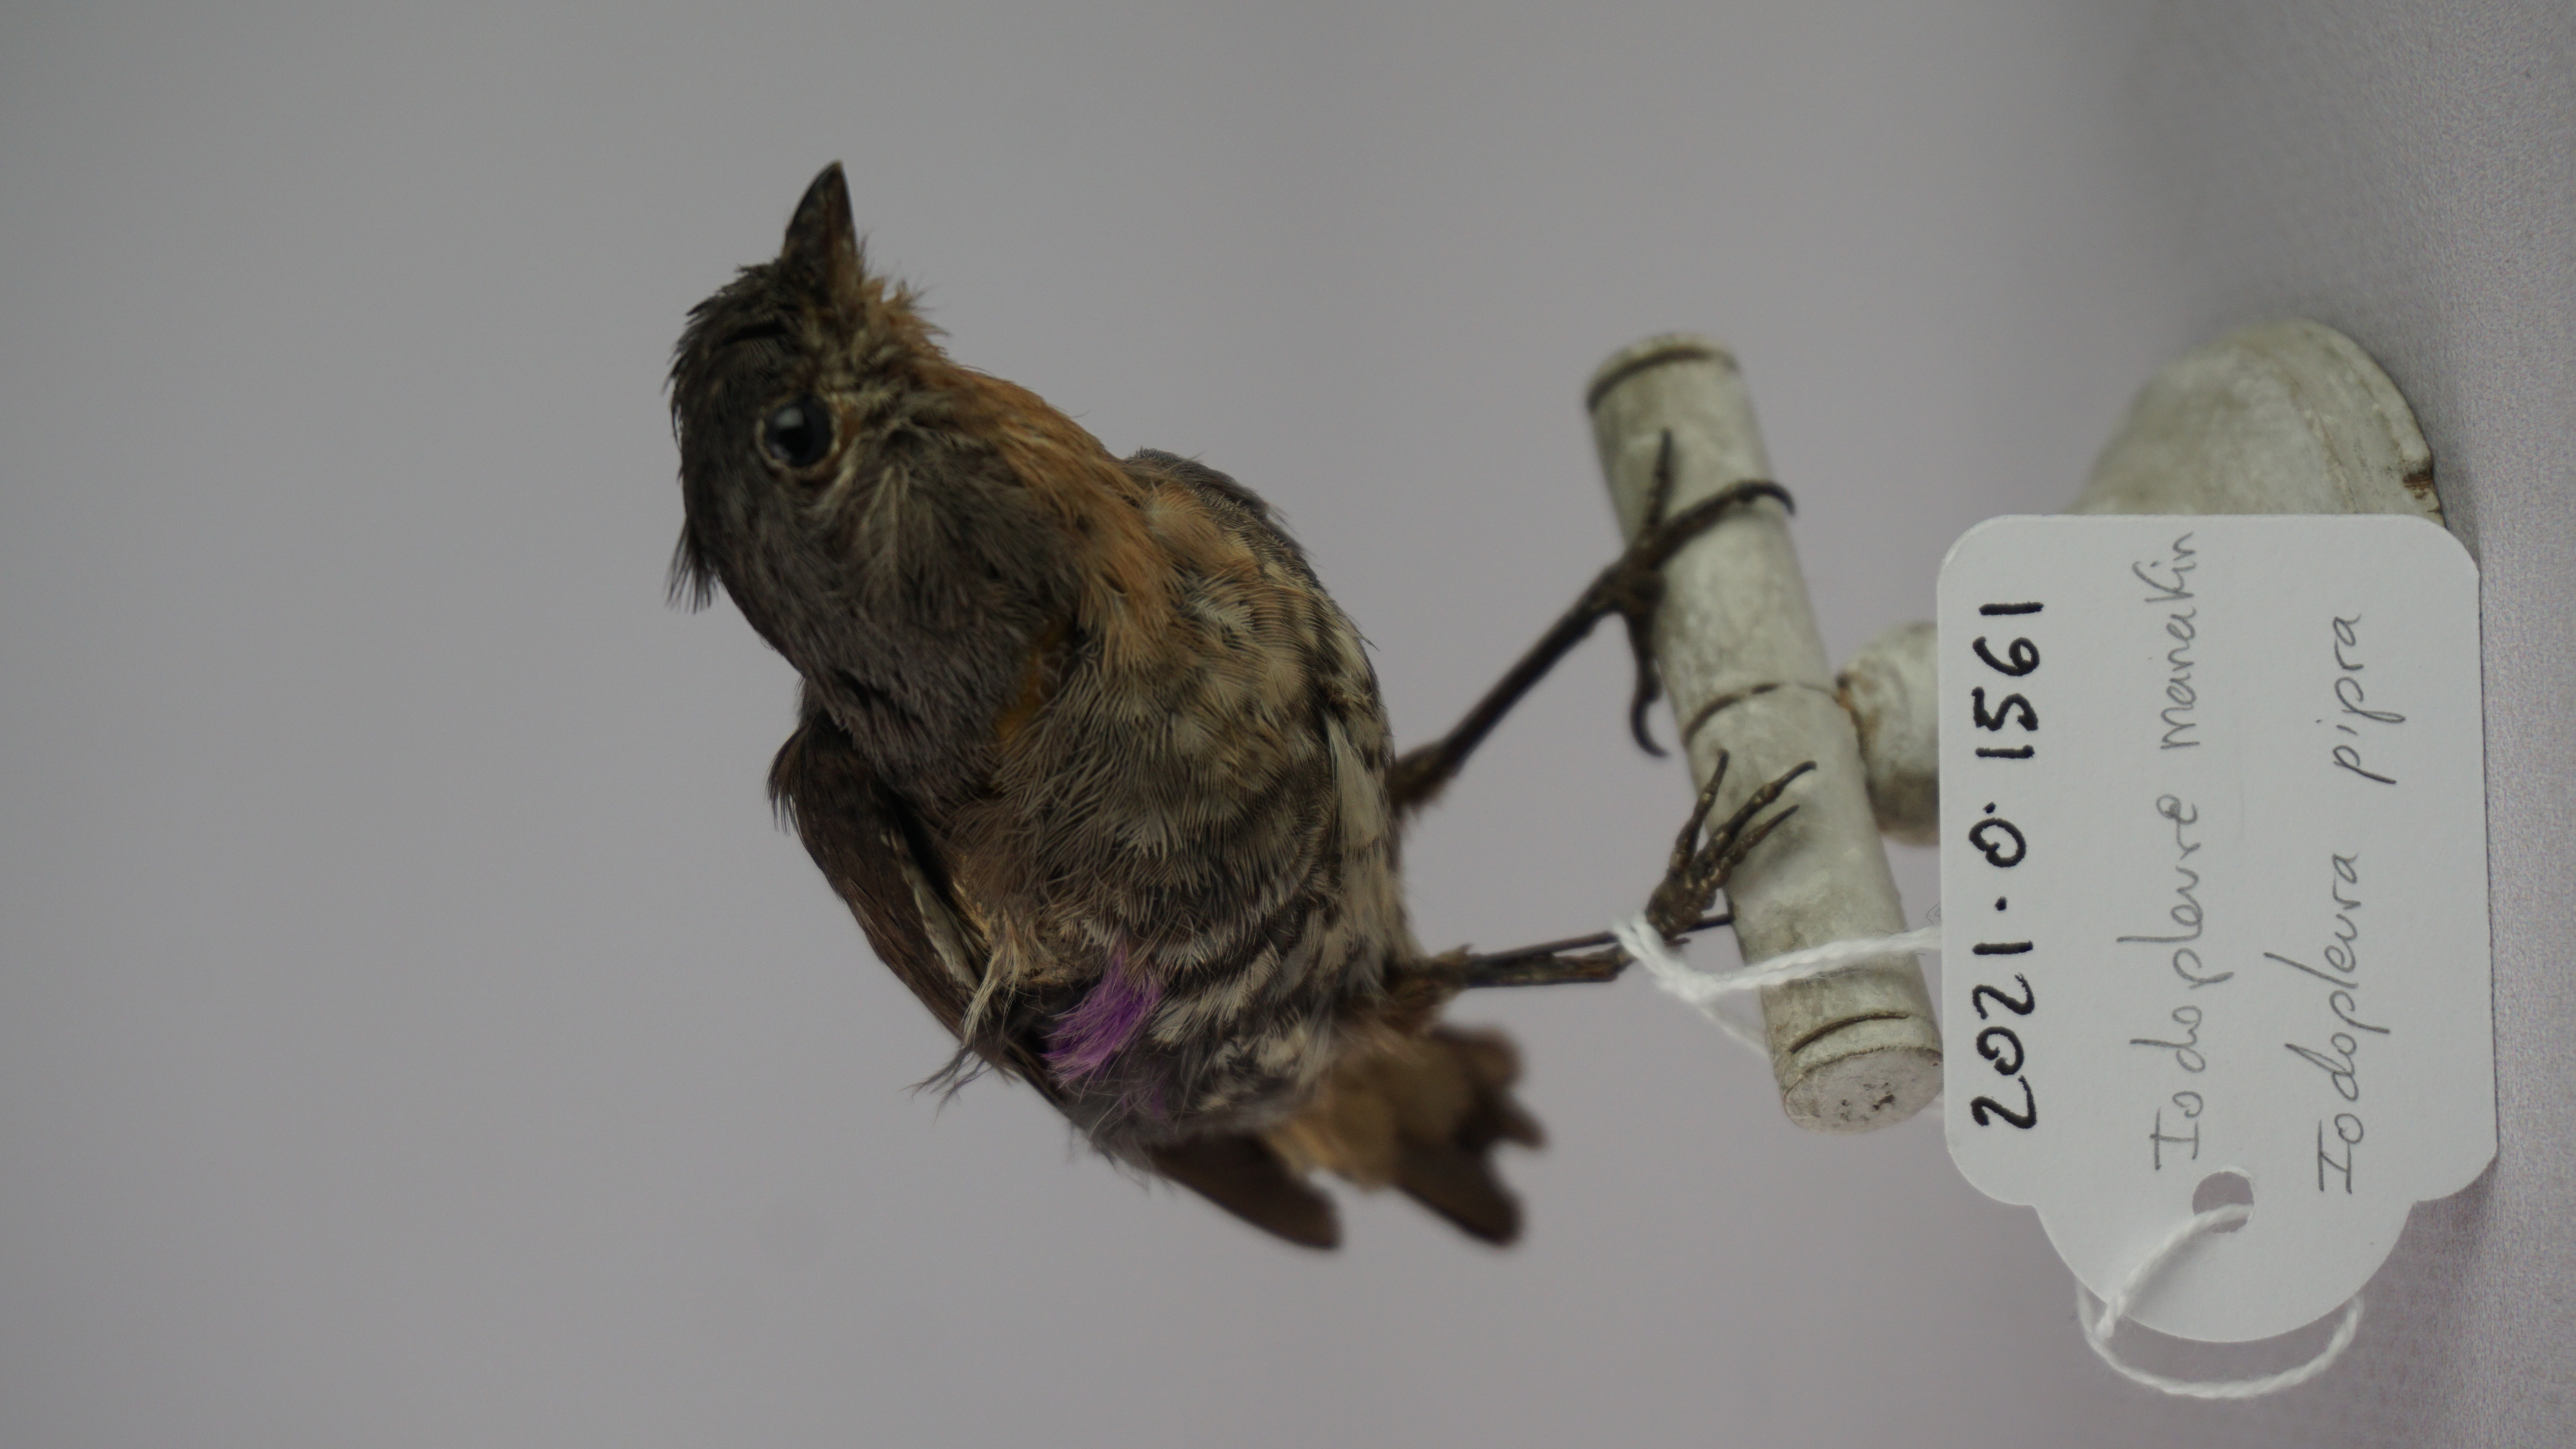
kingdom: Animalia
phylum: Chordata
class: Aves
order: Passeriformes
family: Cotingidae
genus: Iodopleura
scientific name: Iodopleura pipra
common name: Buff-throated purpletuft
